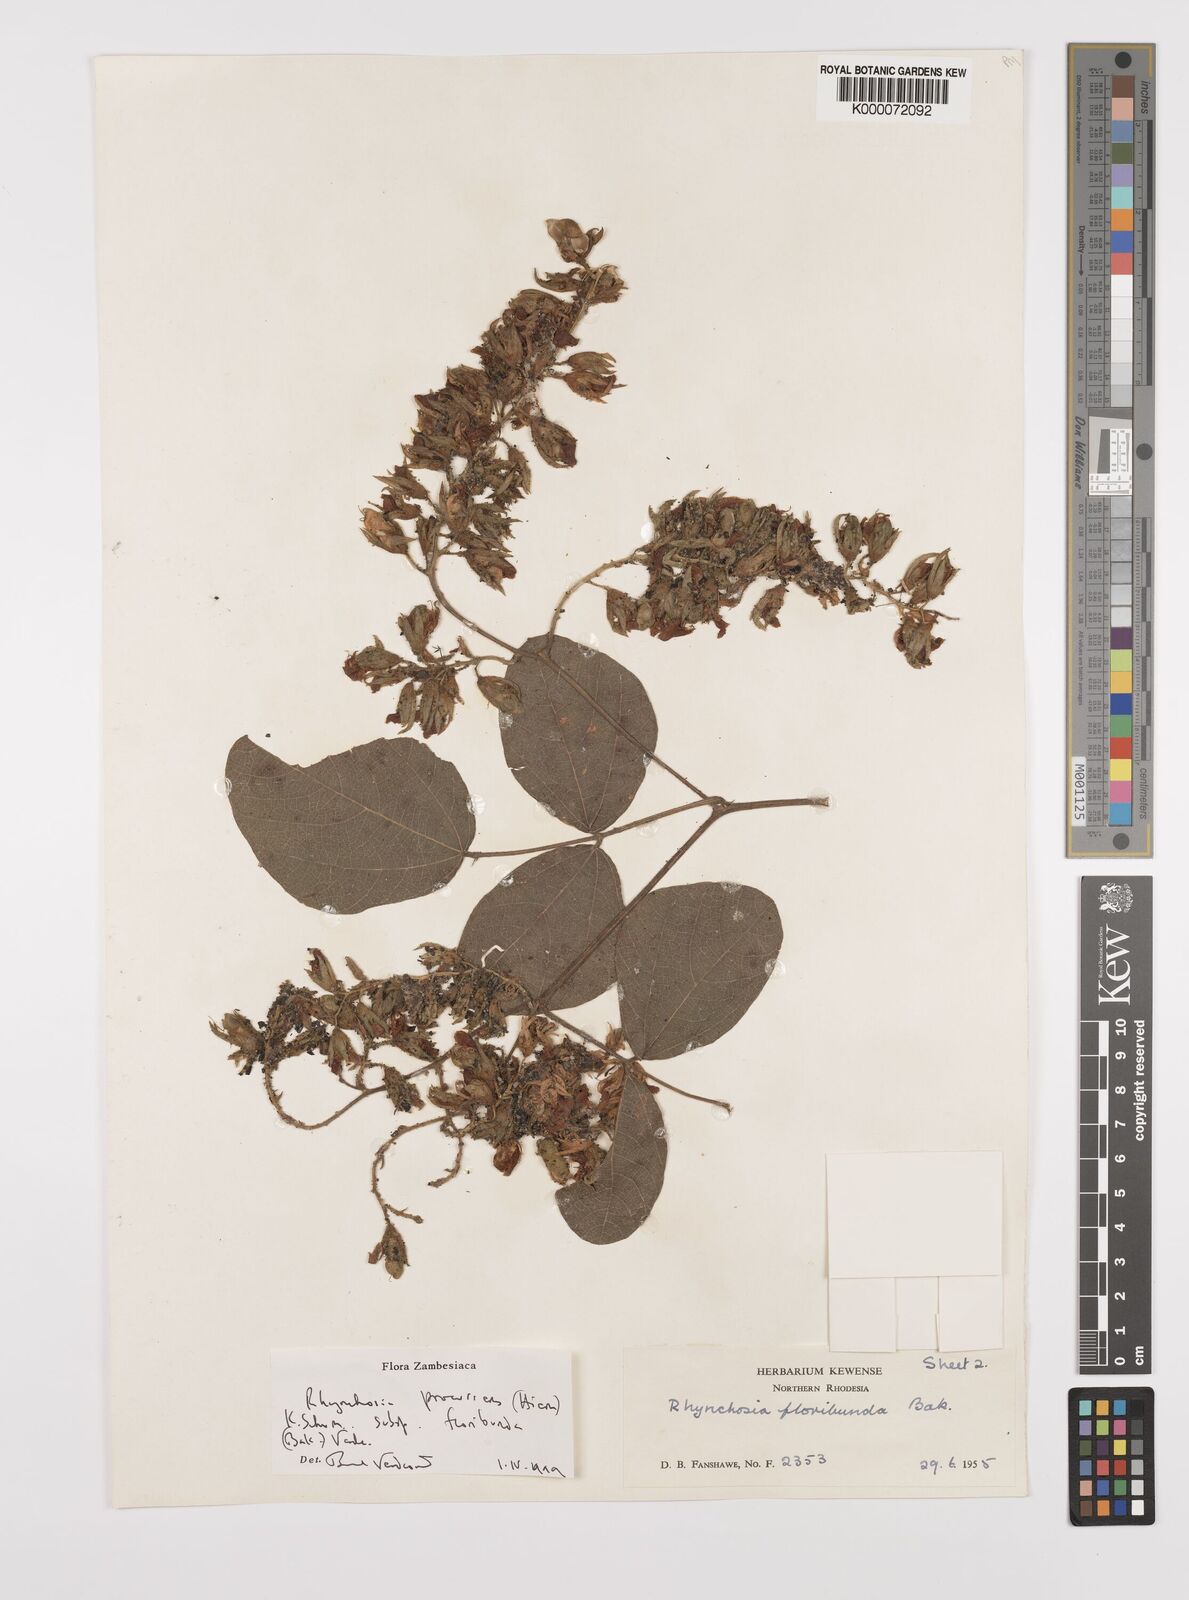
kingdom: Plantae
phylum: Tracheophyta
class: Magnoliopsida
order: Fabales
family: Fabaceae
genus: Rhynchosia
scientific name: Rhynchosia procurrens
